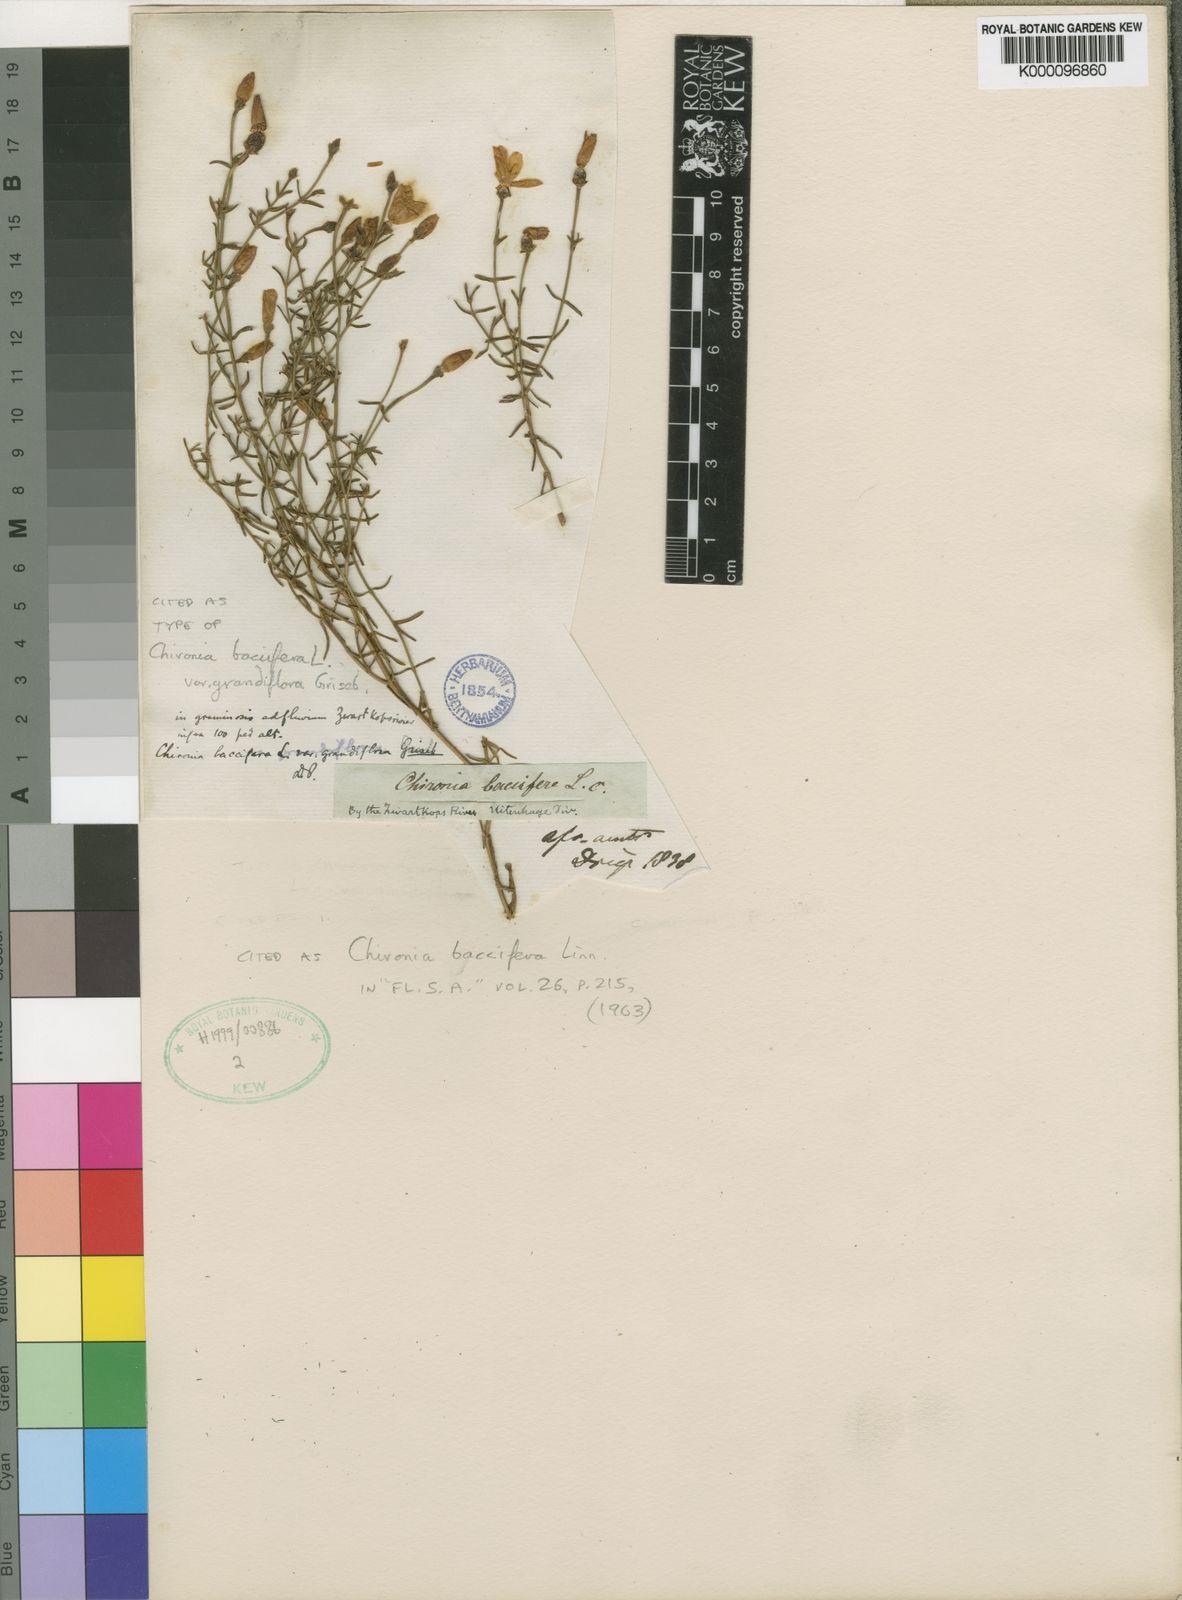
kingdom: Plantae
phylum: Tracheophyta
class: Magnoliopsida
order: Gentianales
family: Gentianaceae
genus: Chironia
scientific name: Chironia baccifera
